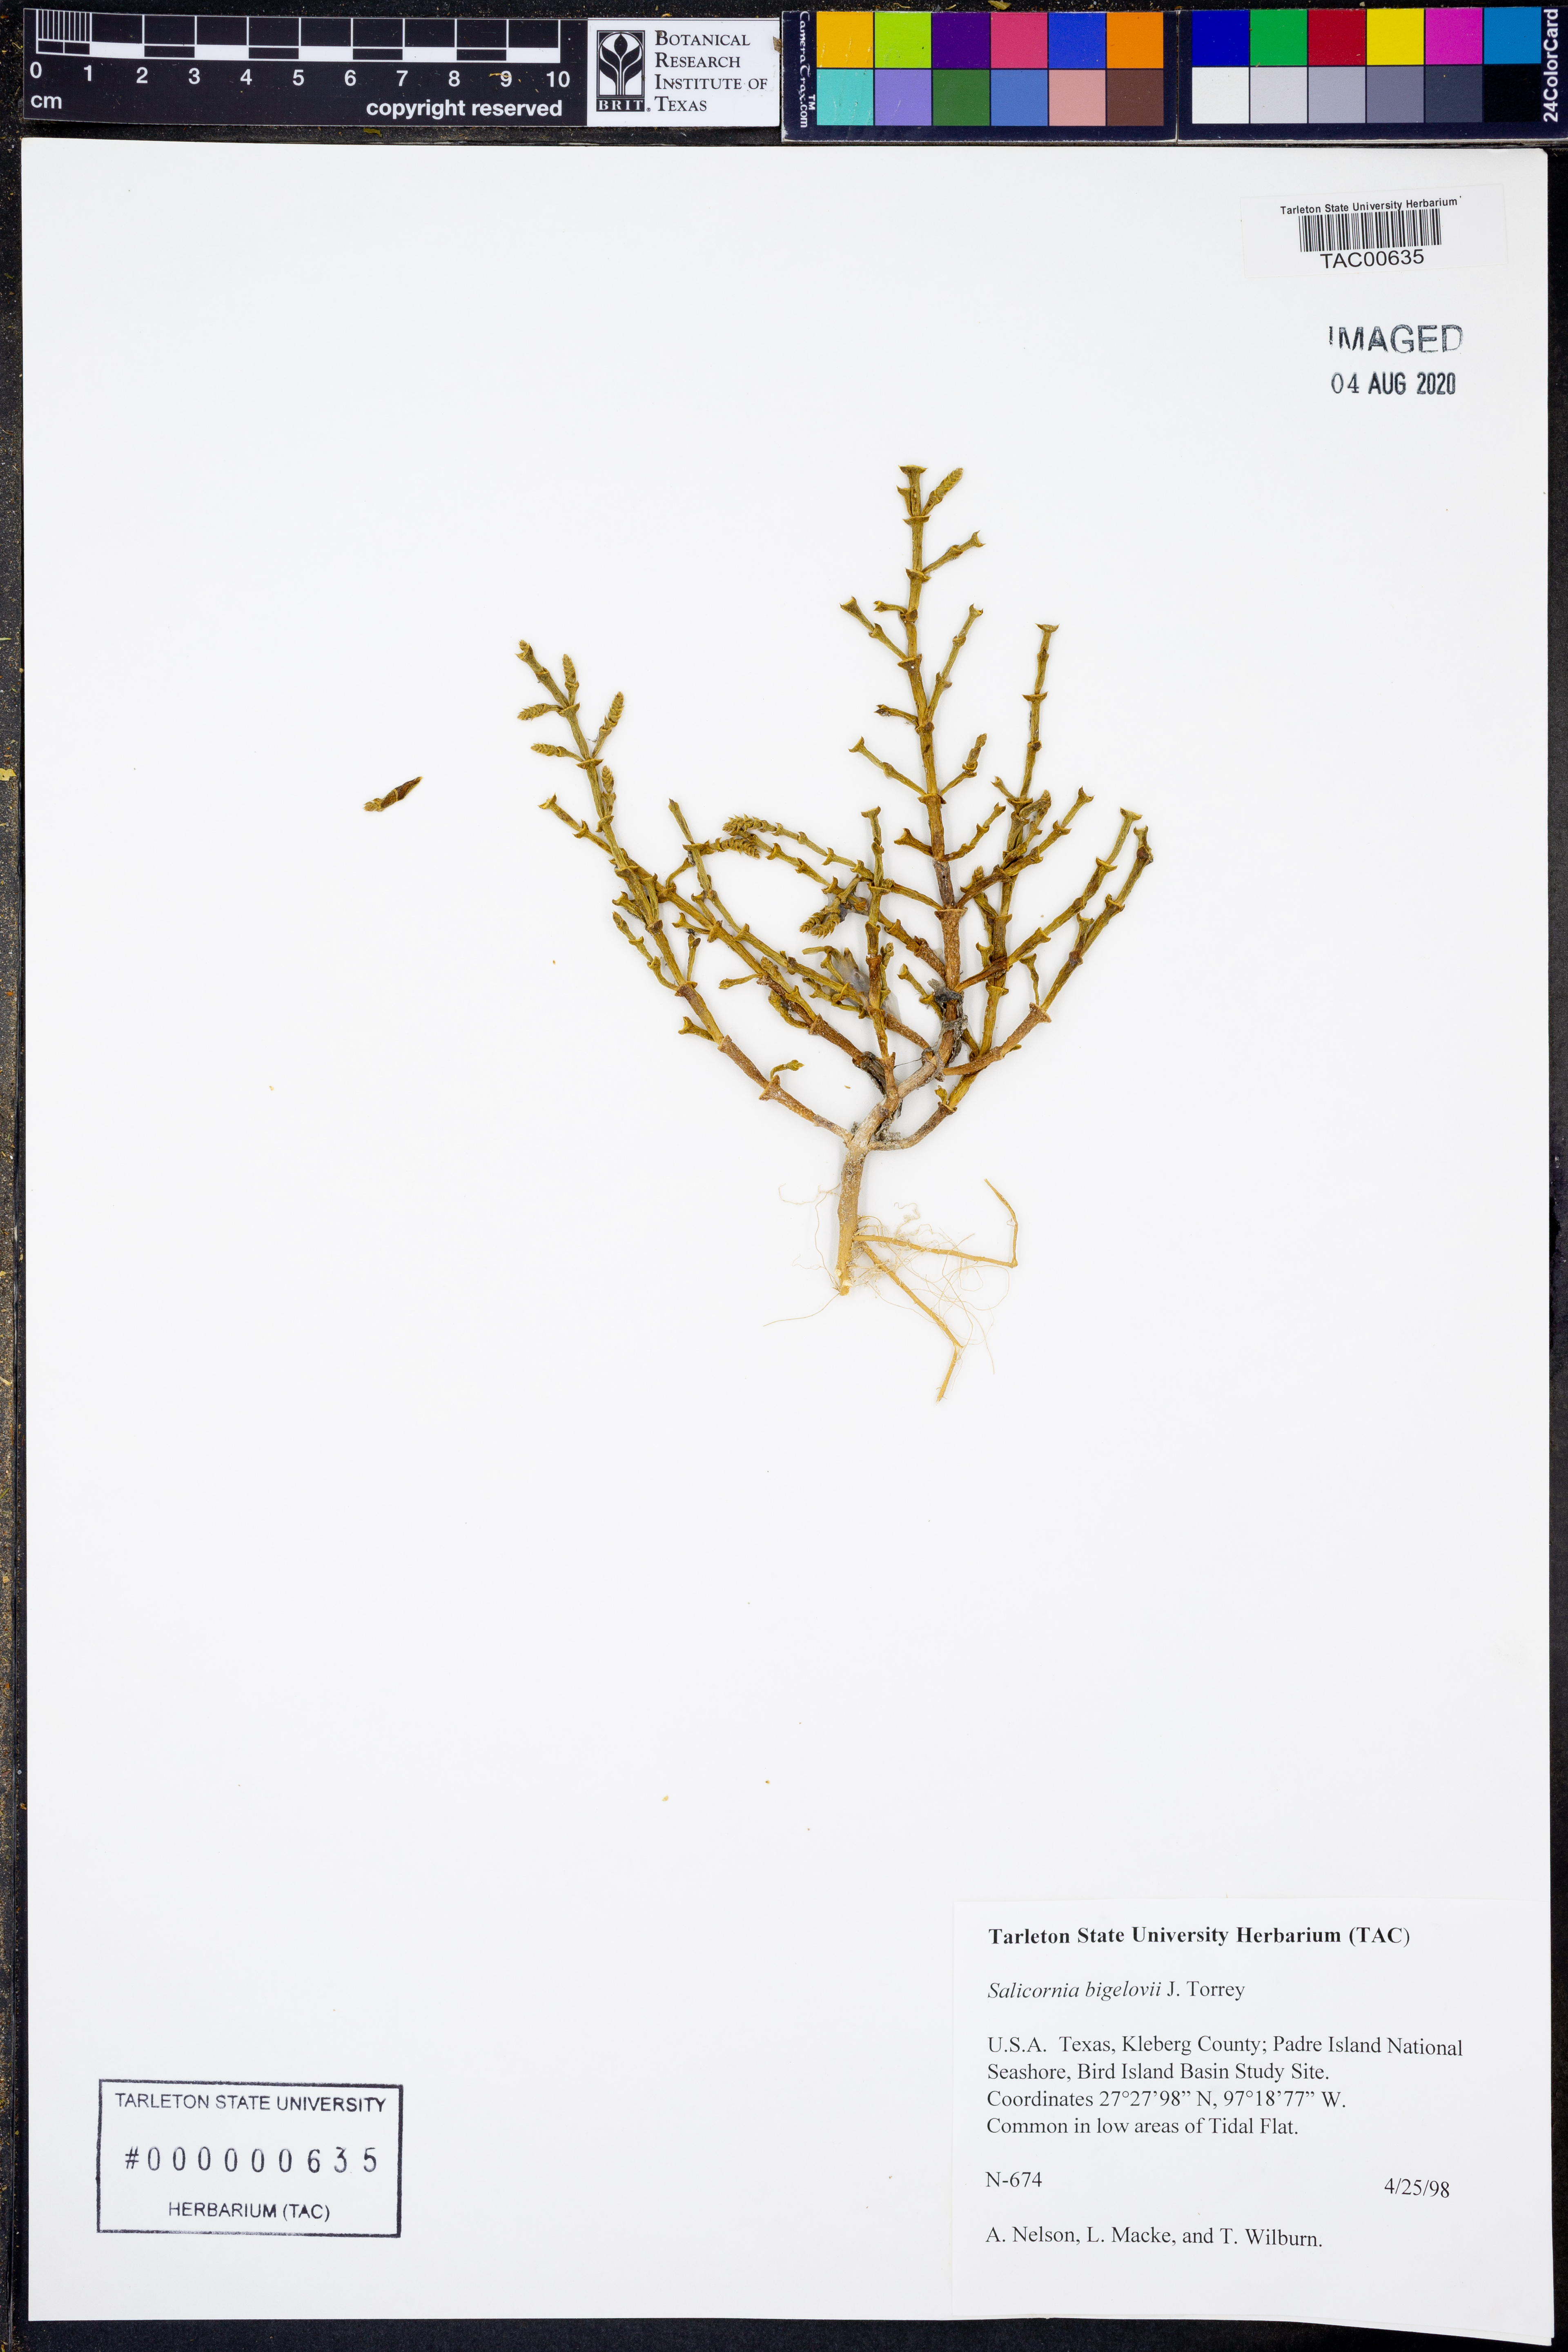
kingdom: Plantae
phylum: Tracheophyta
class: Magnoliopsida
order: Caryophyllales
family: Amaranthaceae
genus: Salicornia
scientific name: Salicornia bigelovii
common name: Dwarf glasswort
